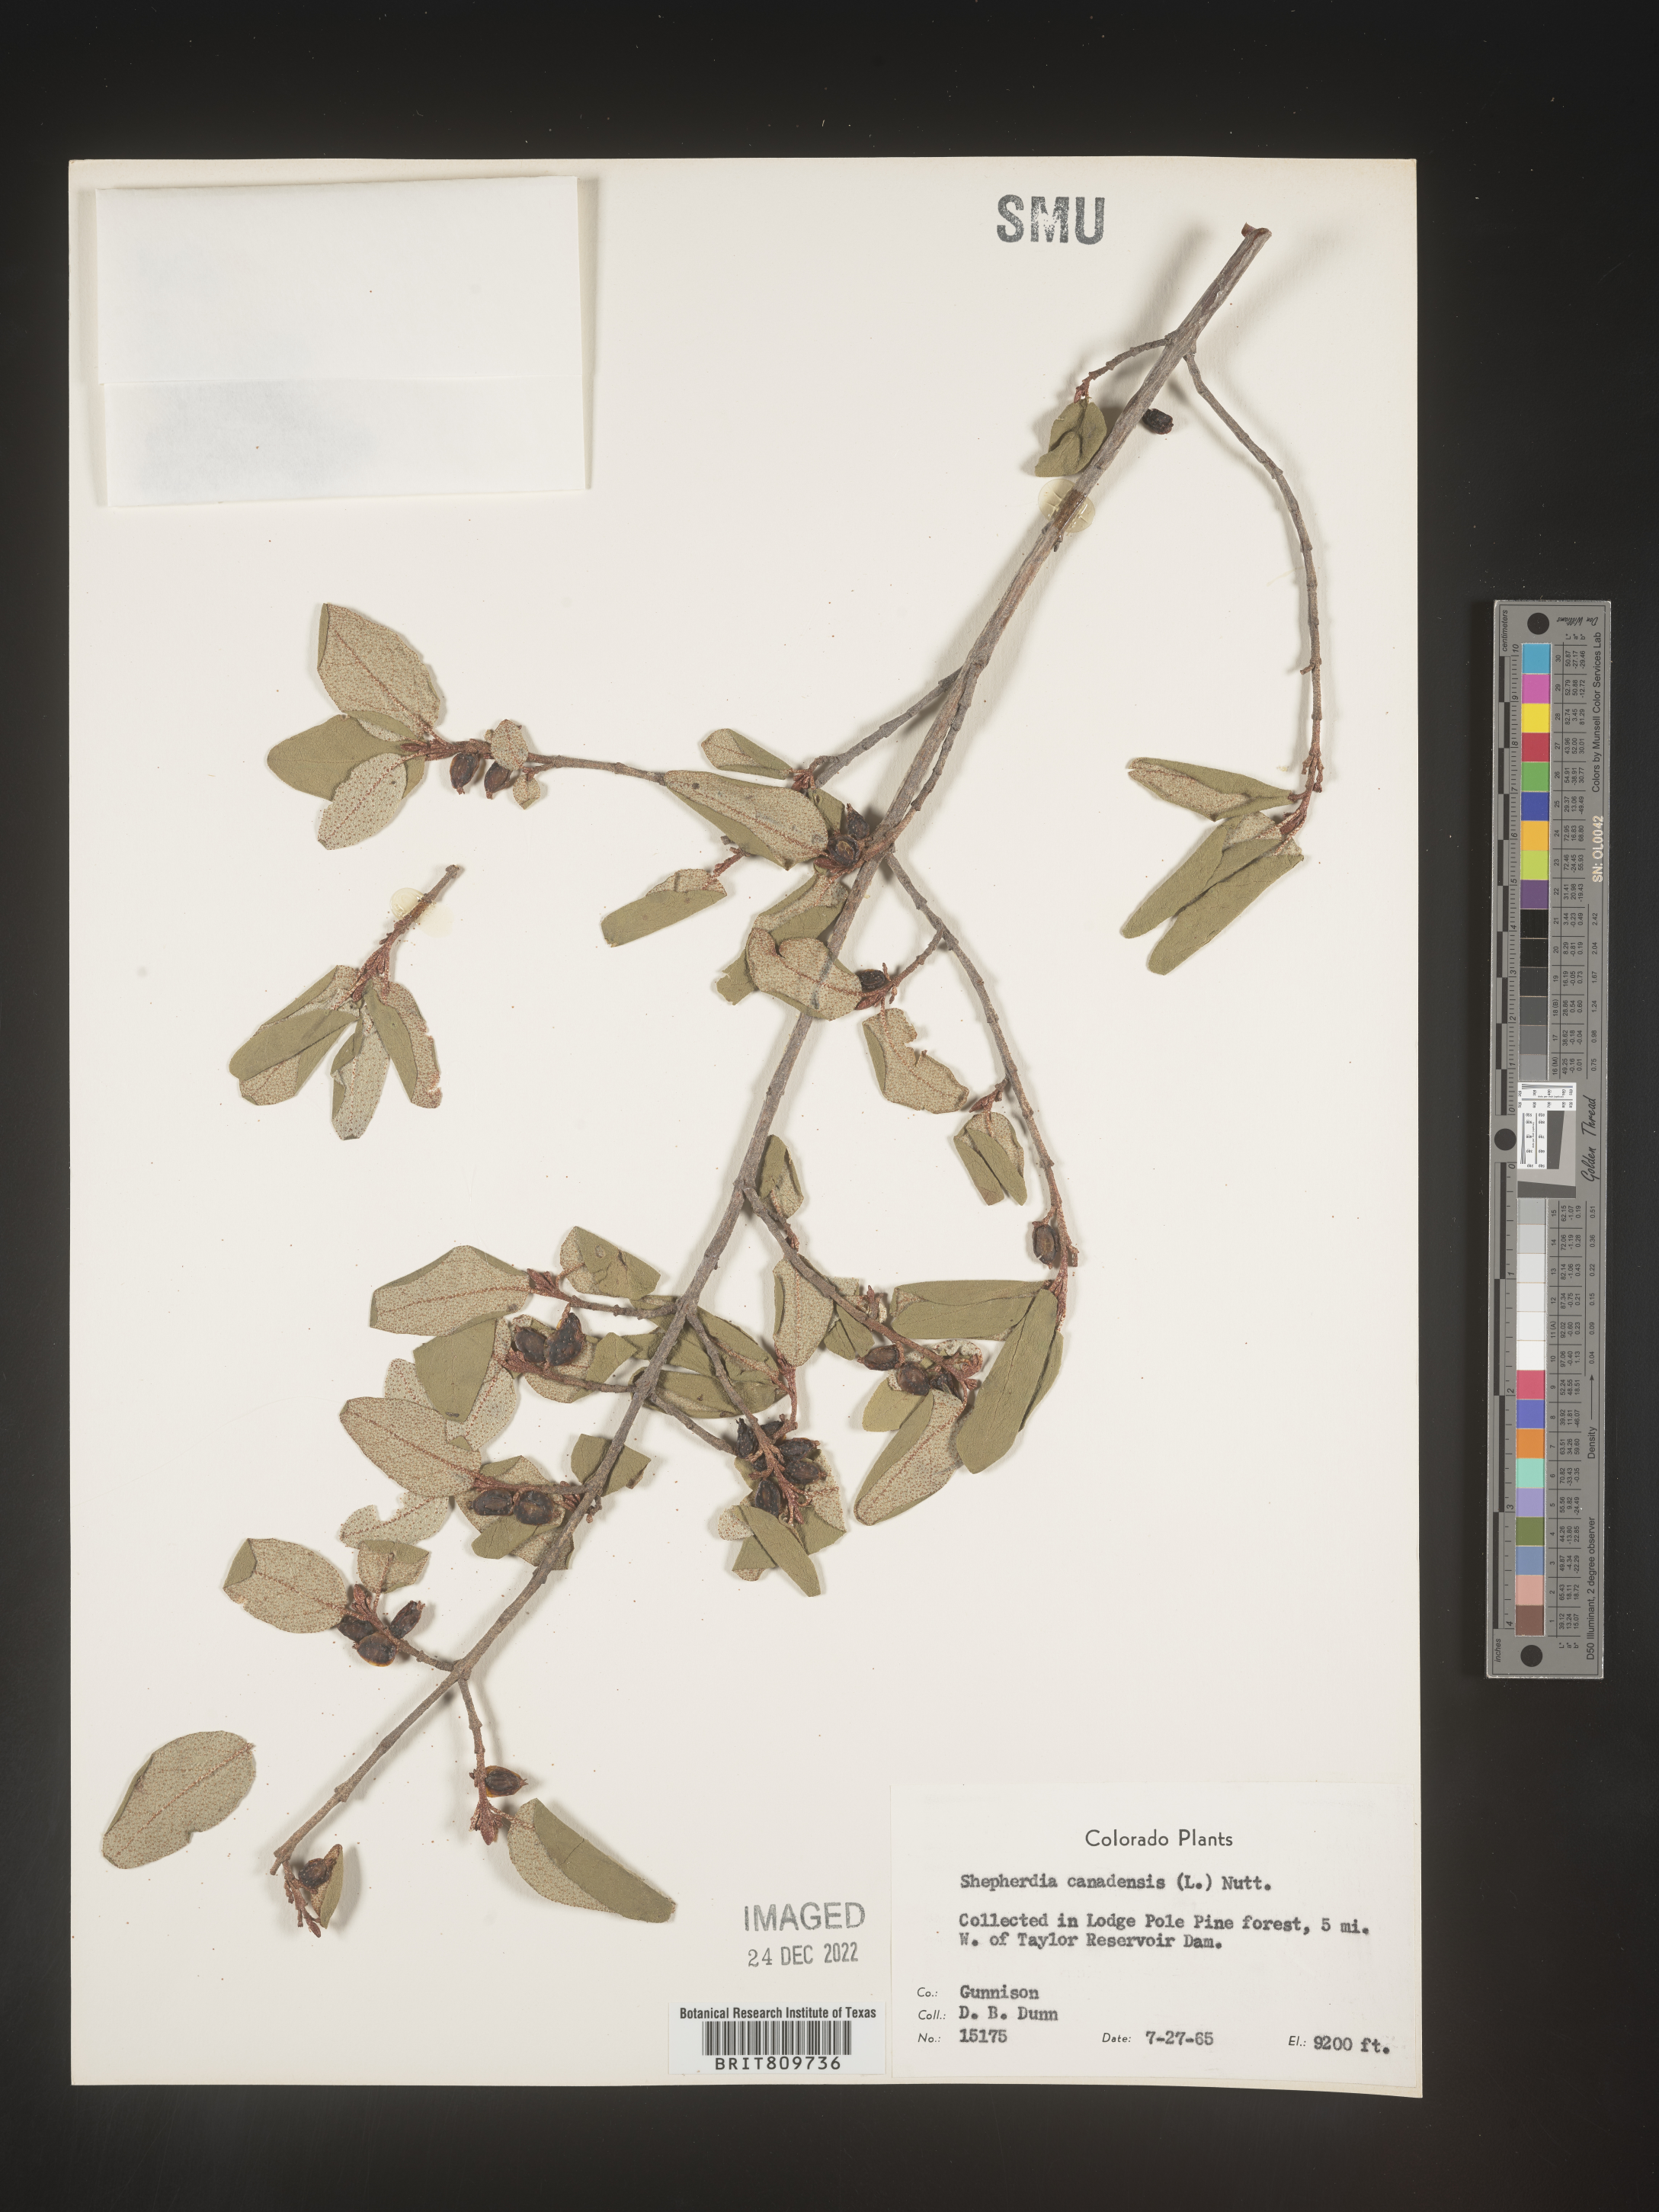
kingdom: Plantae
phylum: Tracheophyta
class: Magnoliopsida
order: Rosales
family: Elaeagnaceae
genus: Shepherdia
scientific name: Shepherdia canadensis
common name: Soapberry
